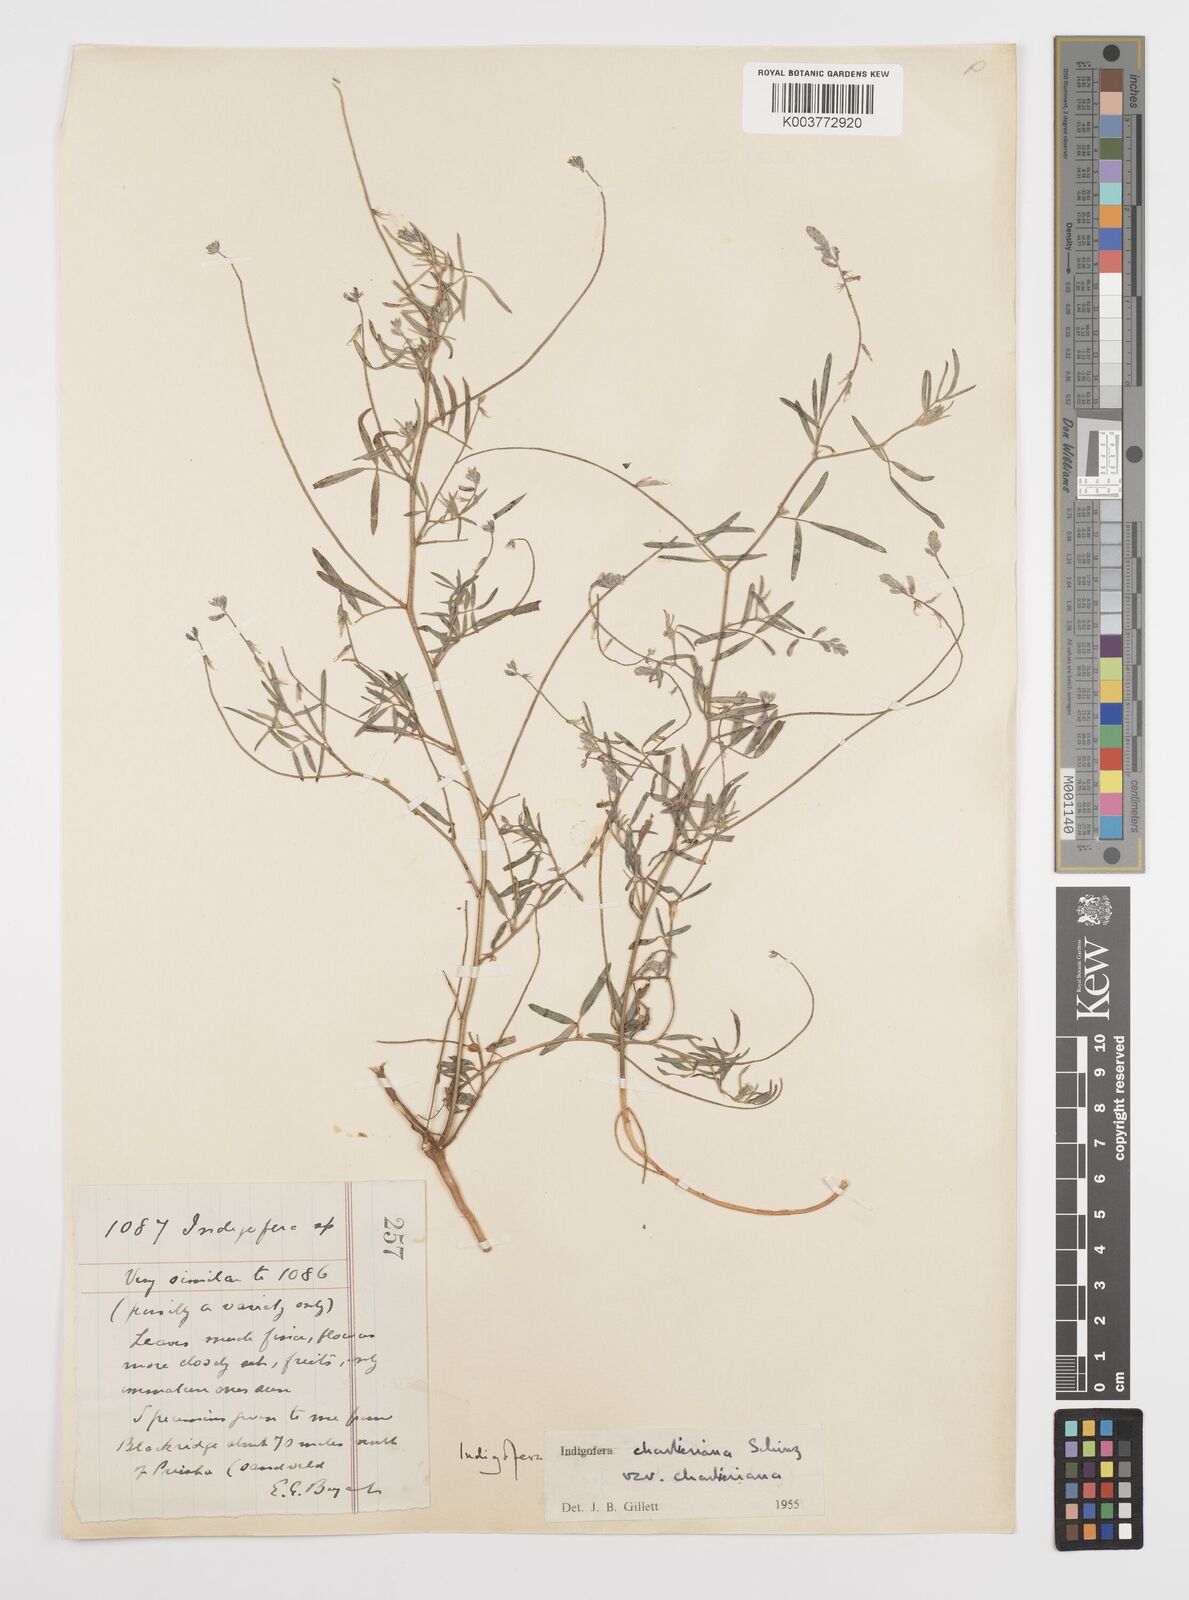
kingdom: Plantae
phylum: Tracheophyta
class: Magnoliopsida
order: Fabales
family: Fabaceae
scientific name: Fabaceae
